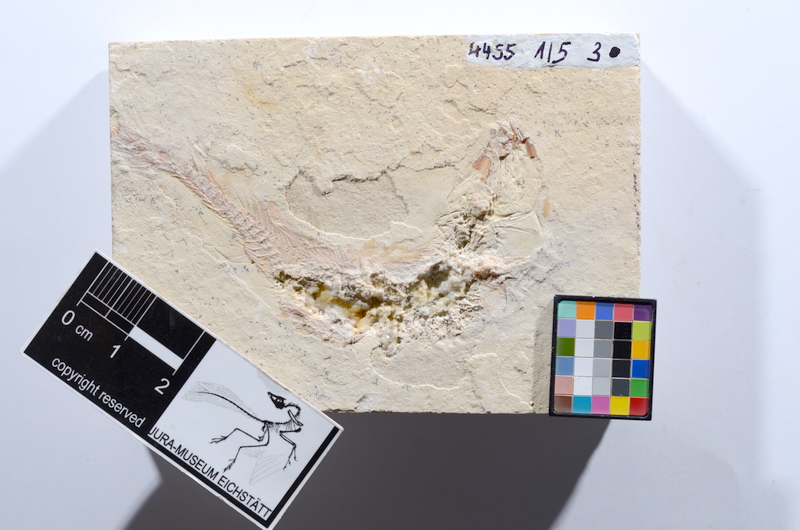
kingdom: Animalia
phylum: Chordata
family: Ascalaboidae
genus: Tharsis
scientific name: Tharsis dubius
